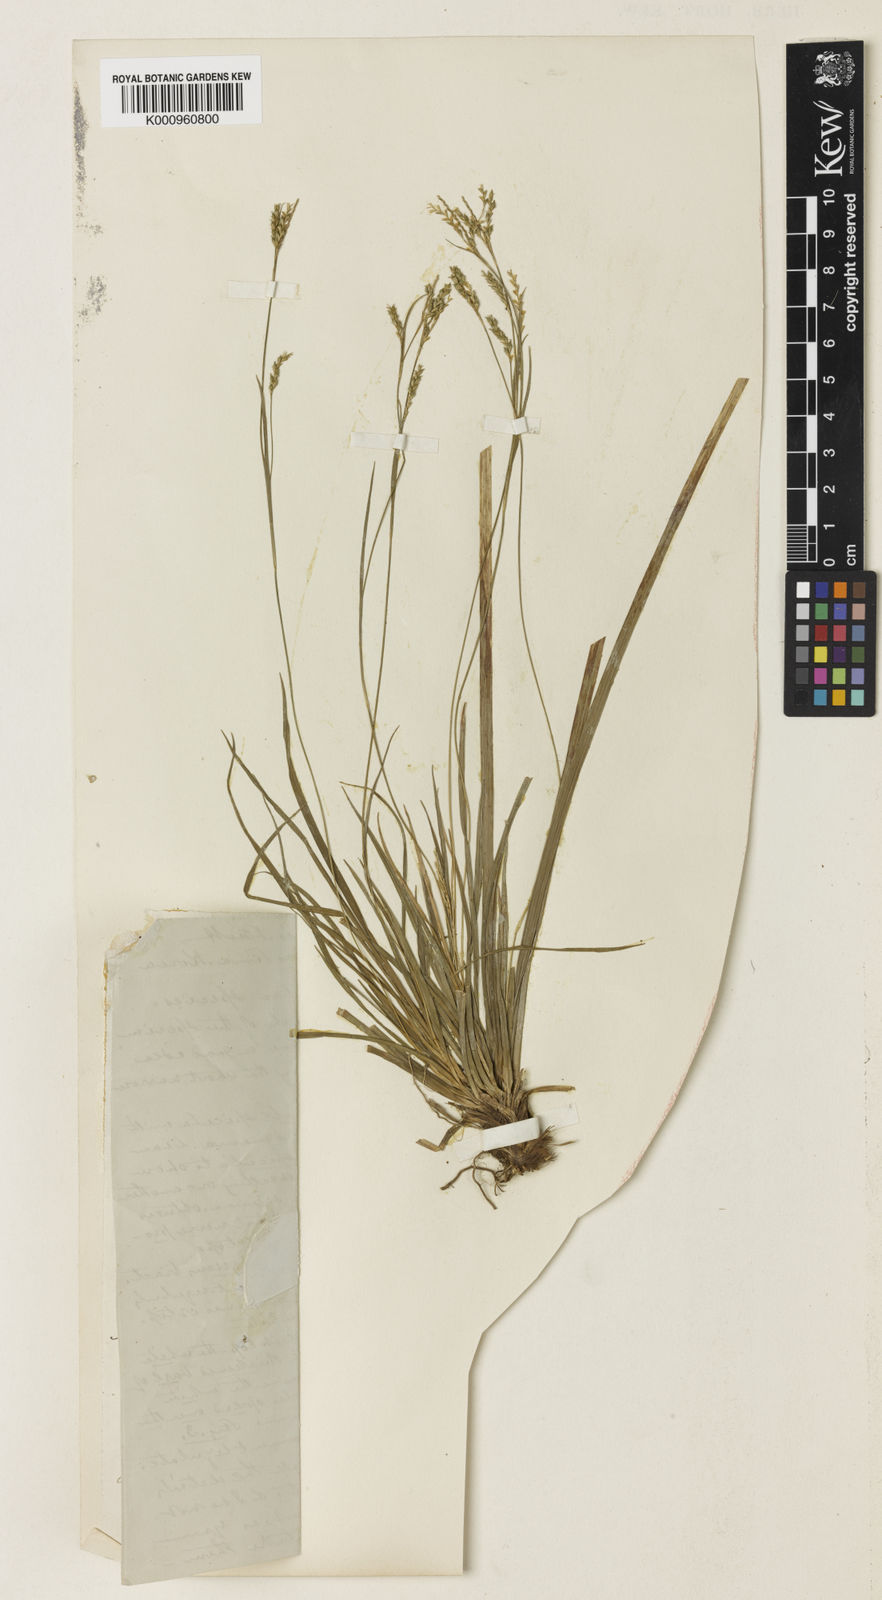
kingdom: Plantae
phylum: Tracheophyta
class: Liliopsida
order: Poales
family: Cyperaceae
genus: Carex
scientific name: Carex tristachya
